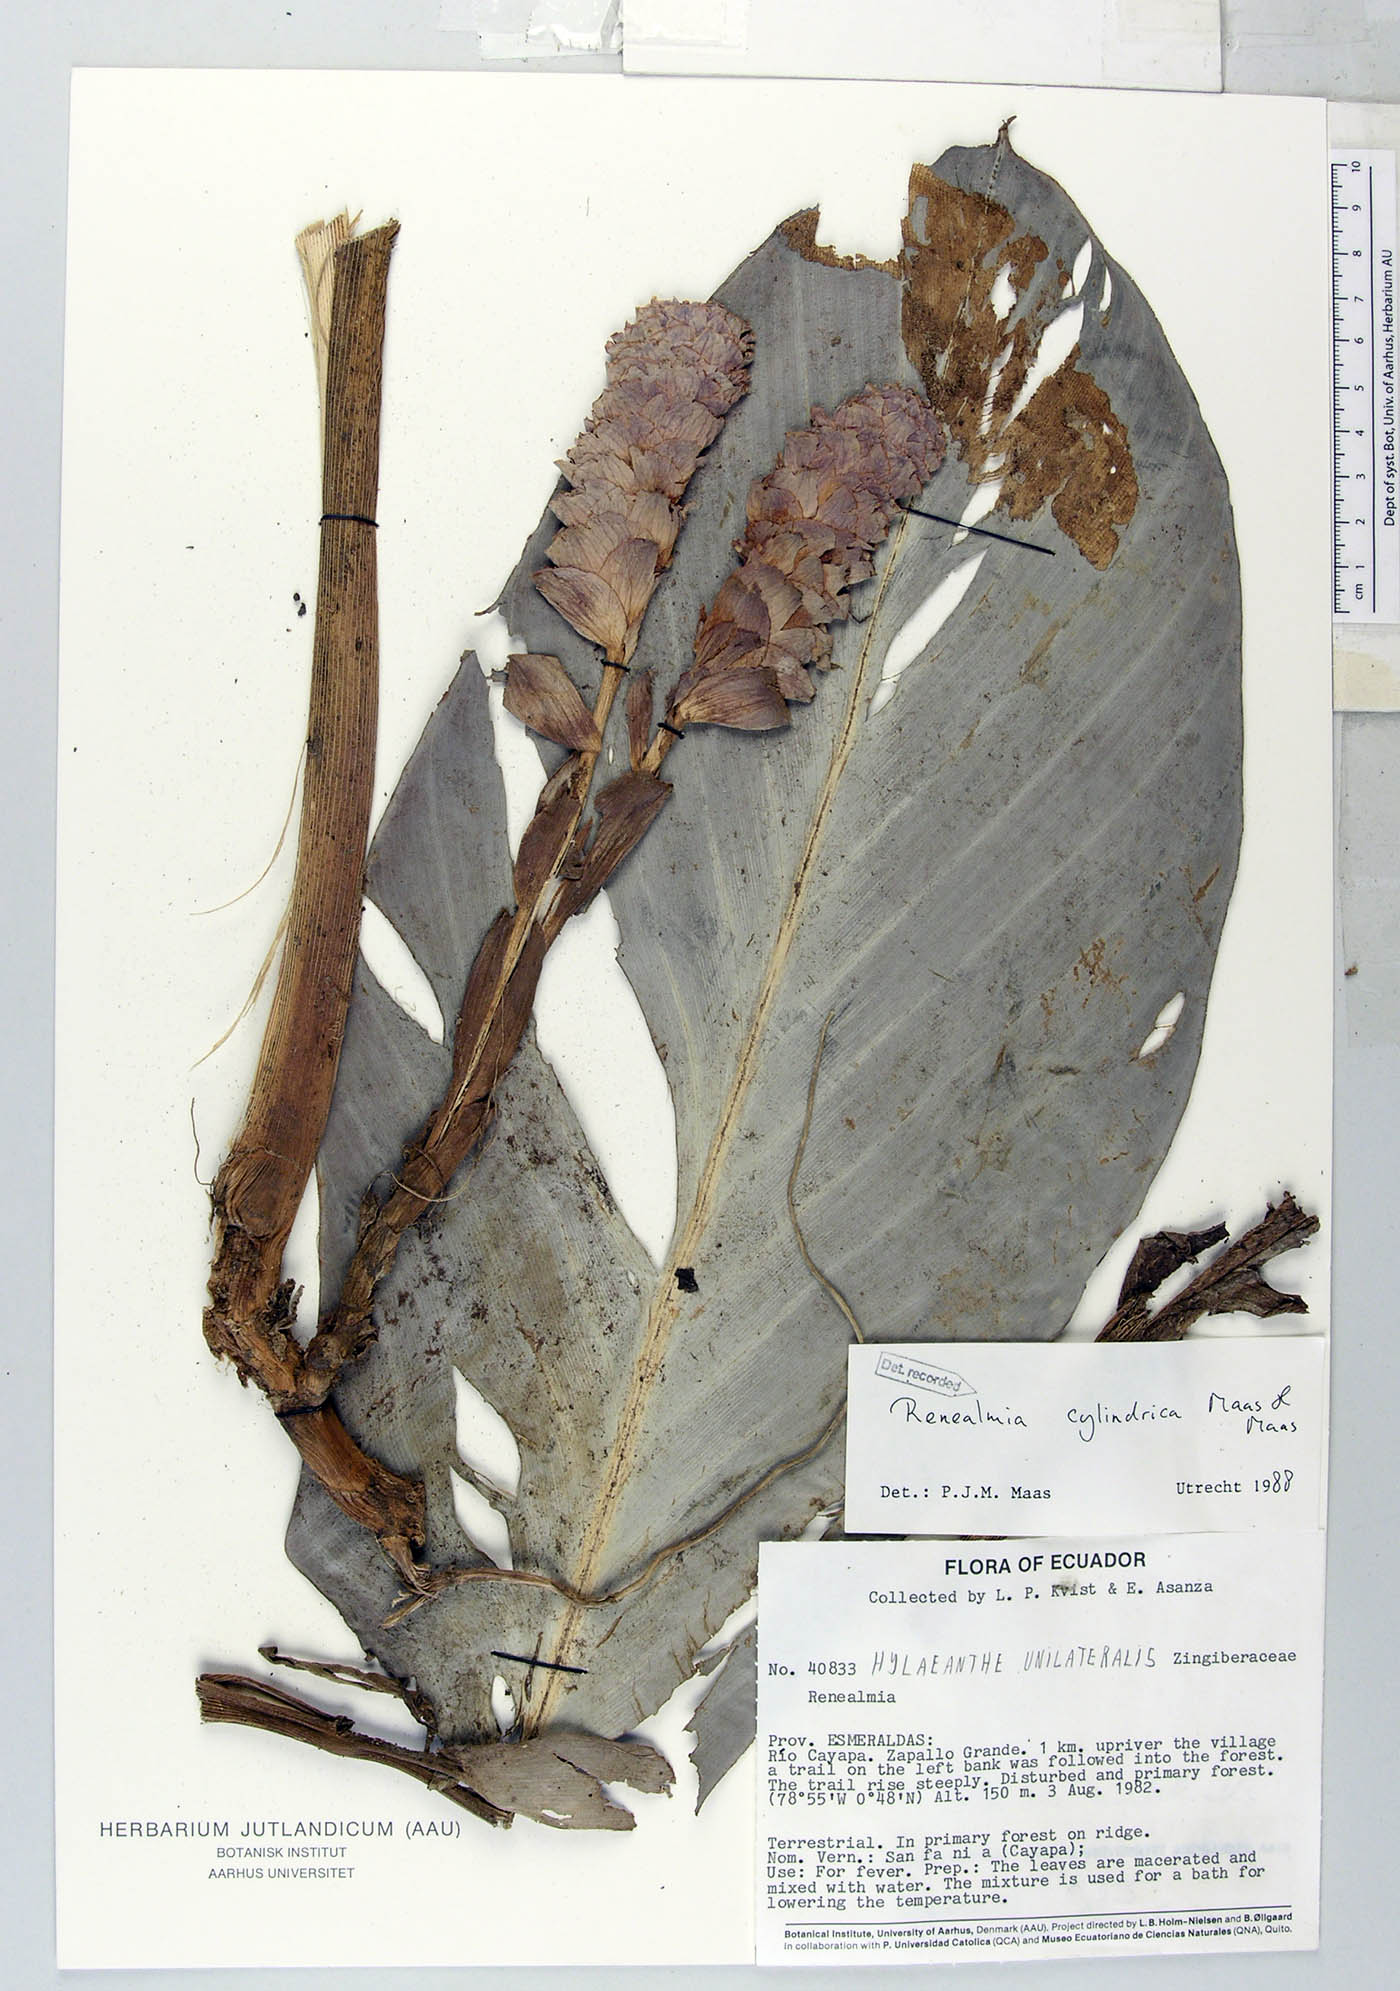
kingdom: Plantae
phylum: Tracheophyta
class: Liliopsida
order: Zingiberales
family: Zingiberaceae
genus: Renealmia
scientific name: Renealmia cylindrica
